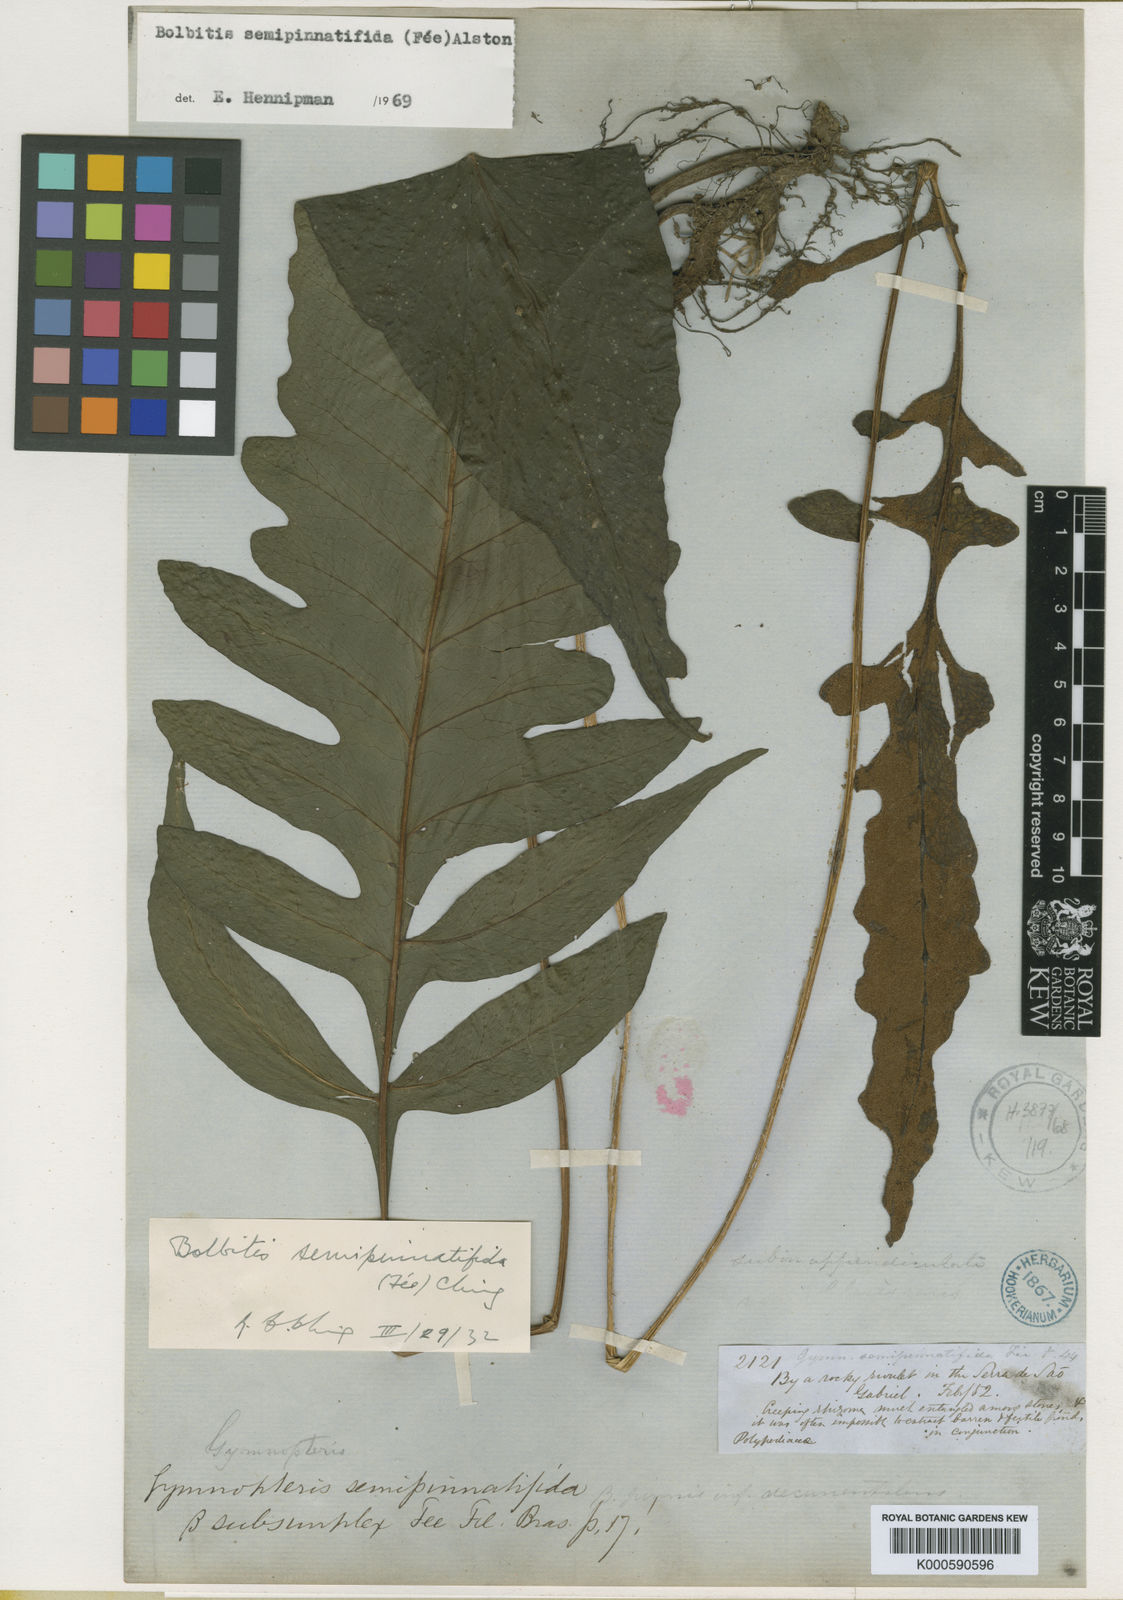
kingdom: Plantae
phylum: Tracheophyta
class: Polypodiopsida
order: Polypodiales
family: Dryopteridaceae
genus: Bolbitis
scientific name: Bolbitis
